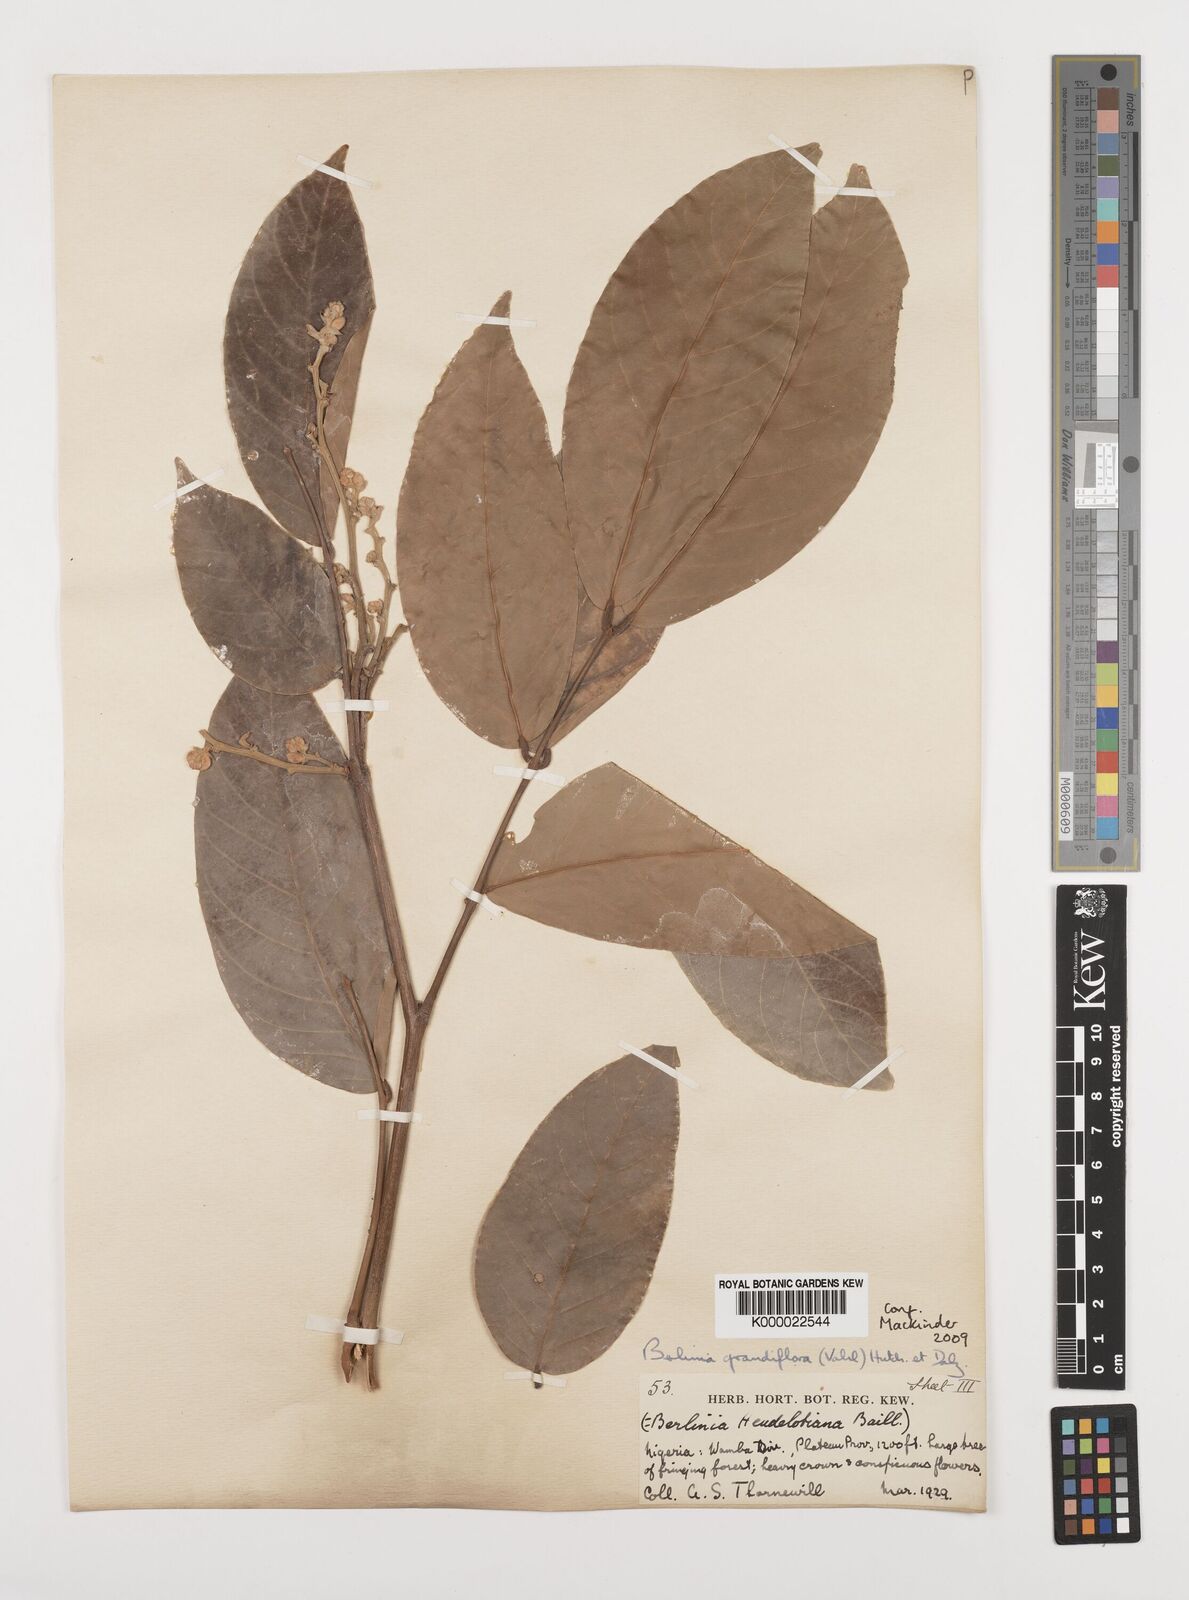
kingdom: Plantae
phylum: Tracheophyta
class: Magnoliopsida
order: Fabales
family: Fabaceae
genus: Berlinia
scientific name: Berlinia grandiflora
